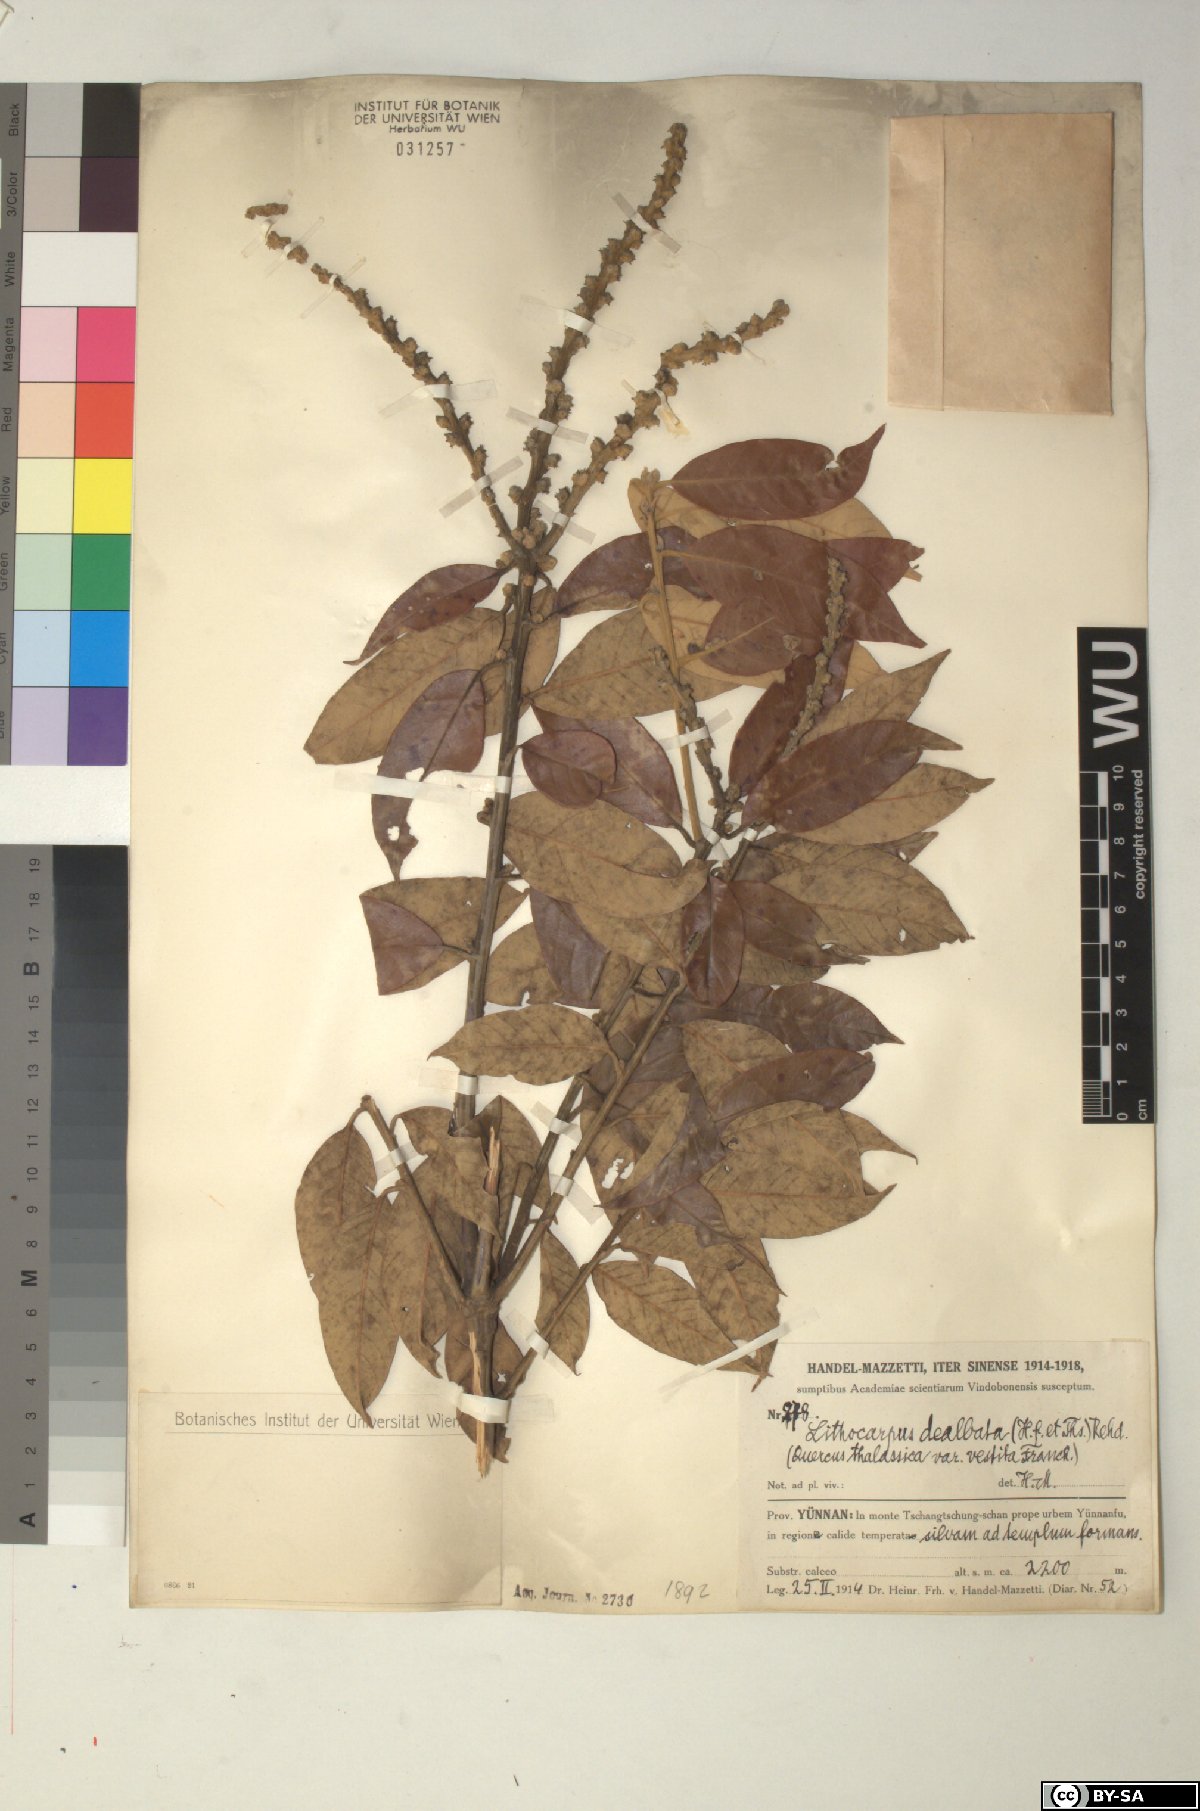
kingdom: Plantae
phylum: Tracheophyta
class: Magnoliopsida
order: Fagales
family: Fagaceae
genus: Lithocarpus
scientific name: Lithocarpus dealbatus
